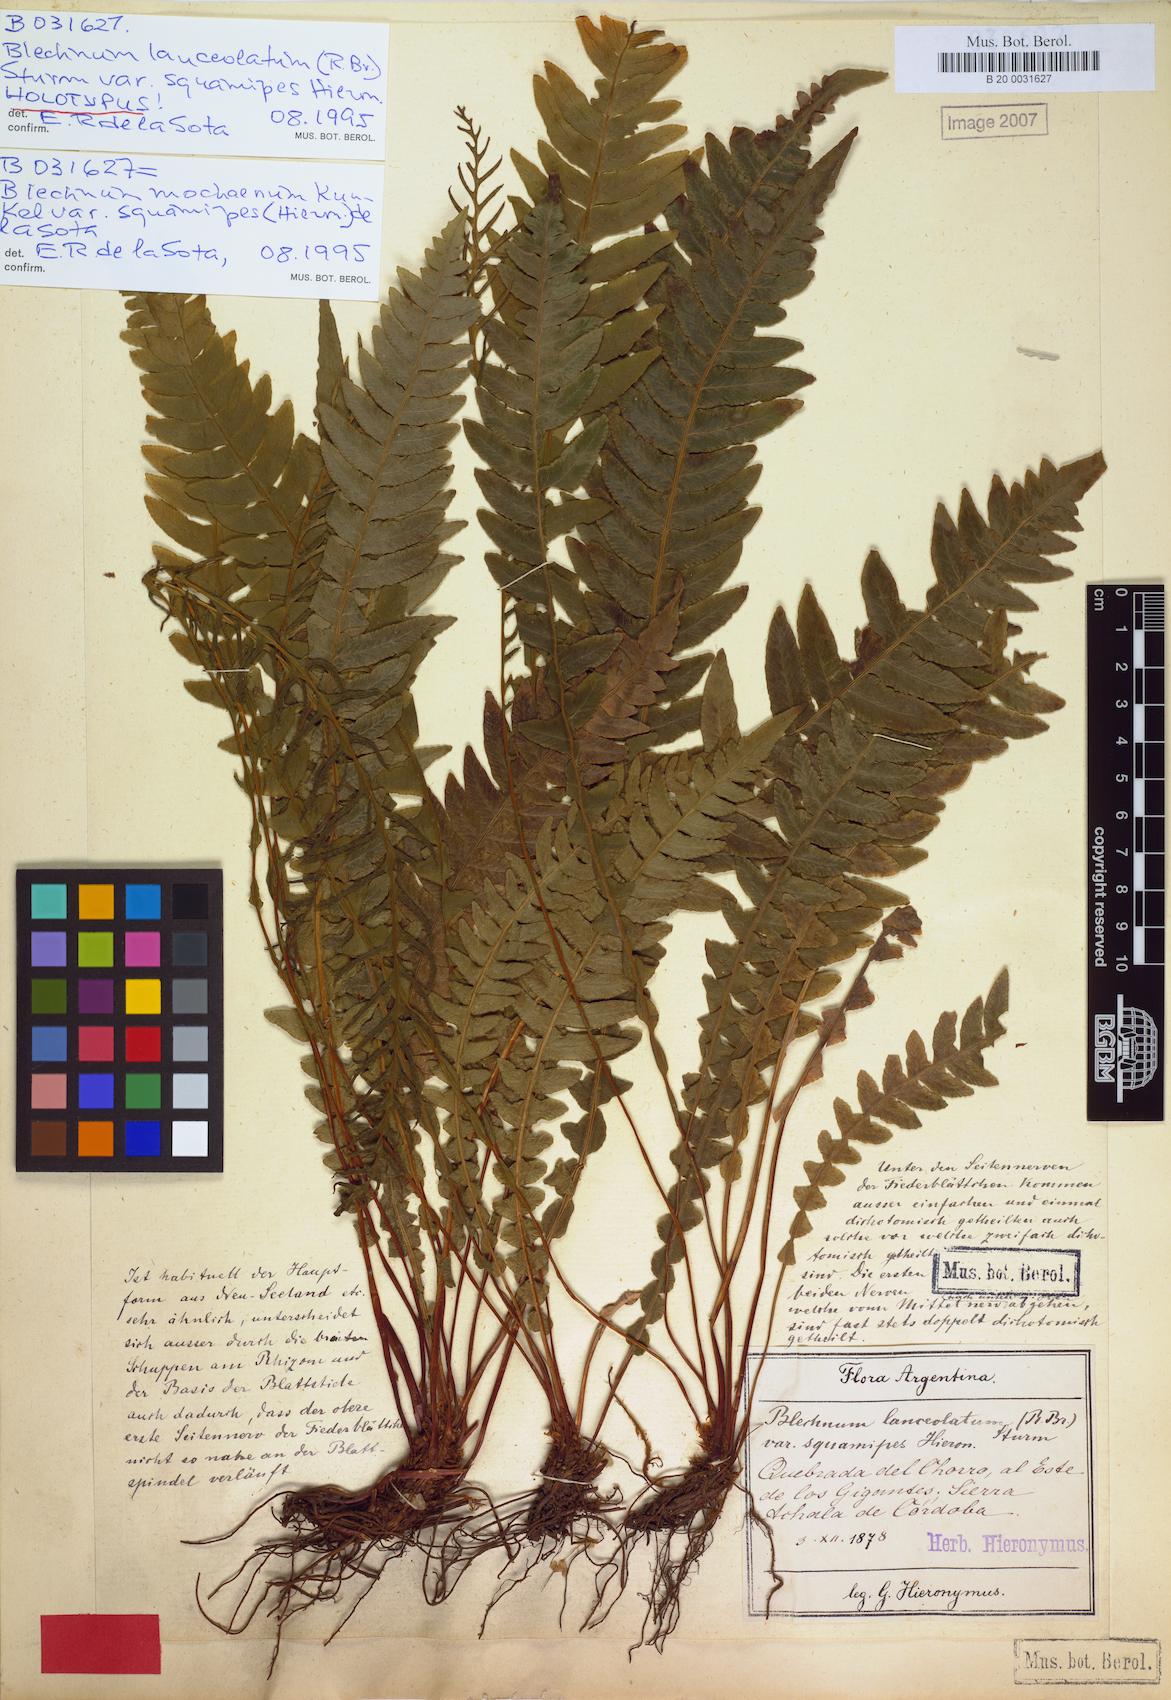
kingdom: Plantae
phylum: Tracheophyta
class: Polypodiopsida
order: Polypodiales
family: Blechnaceae
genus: Austroblechnum
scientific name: Austroblechnum squamipes
